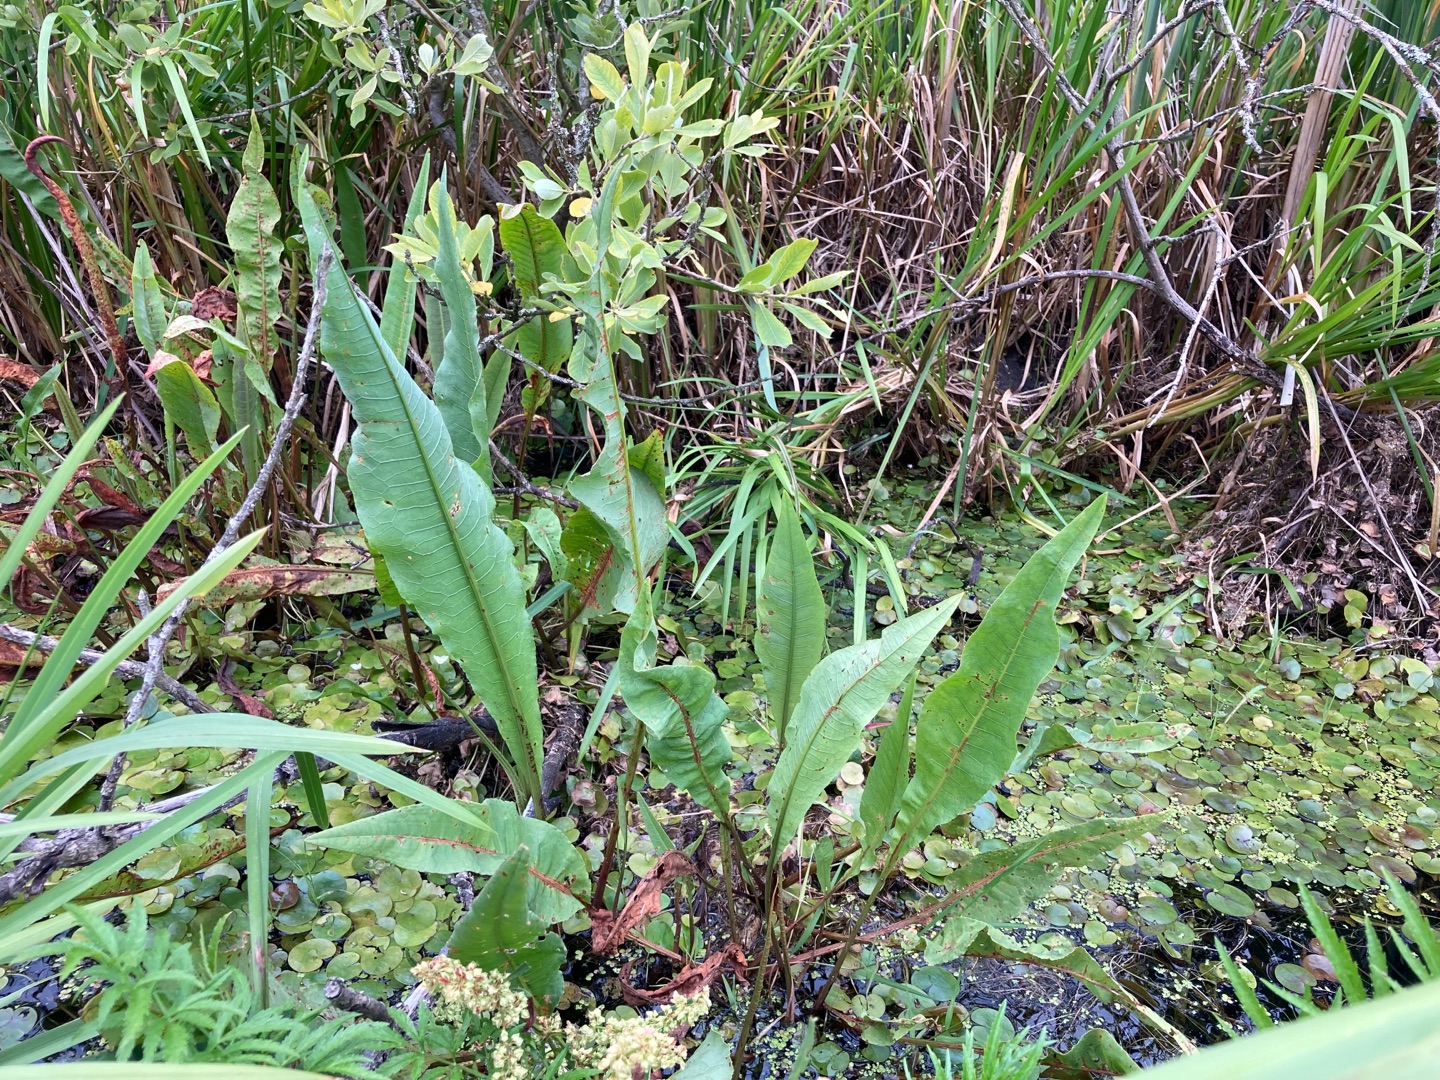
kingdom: Plantae
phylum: Tracheophyta
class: Magnoliopsida
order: Caryophyllales
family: Polygonaceae
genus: Rumex
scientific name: Rumex hydrolapathum
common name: Vand-skræppe
